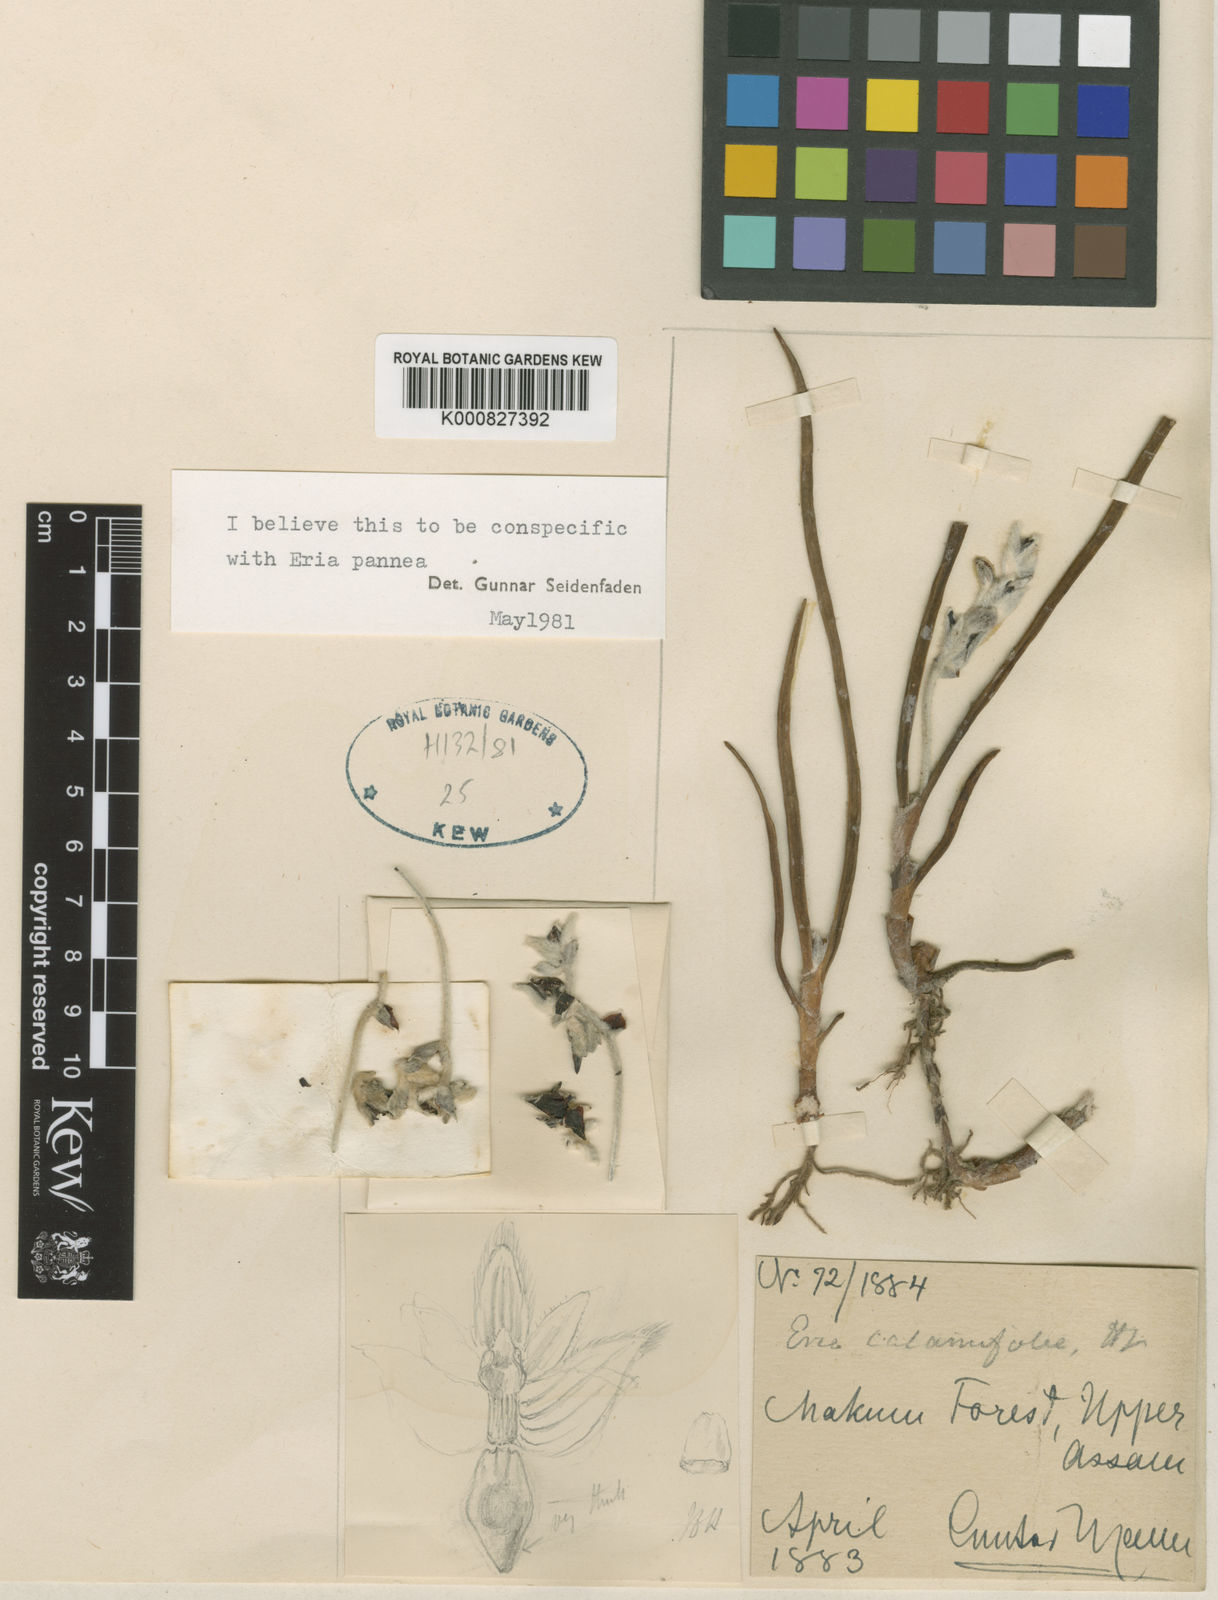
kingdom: Plantae
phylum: Tracheophyta
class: Liliopsida
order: Asparagales
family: Orchidaceae
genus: Strongyleria
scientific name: Strongyleria pannea
